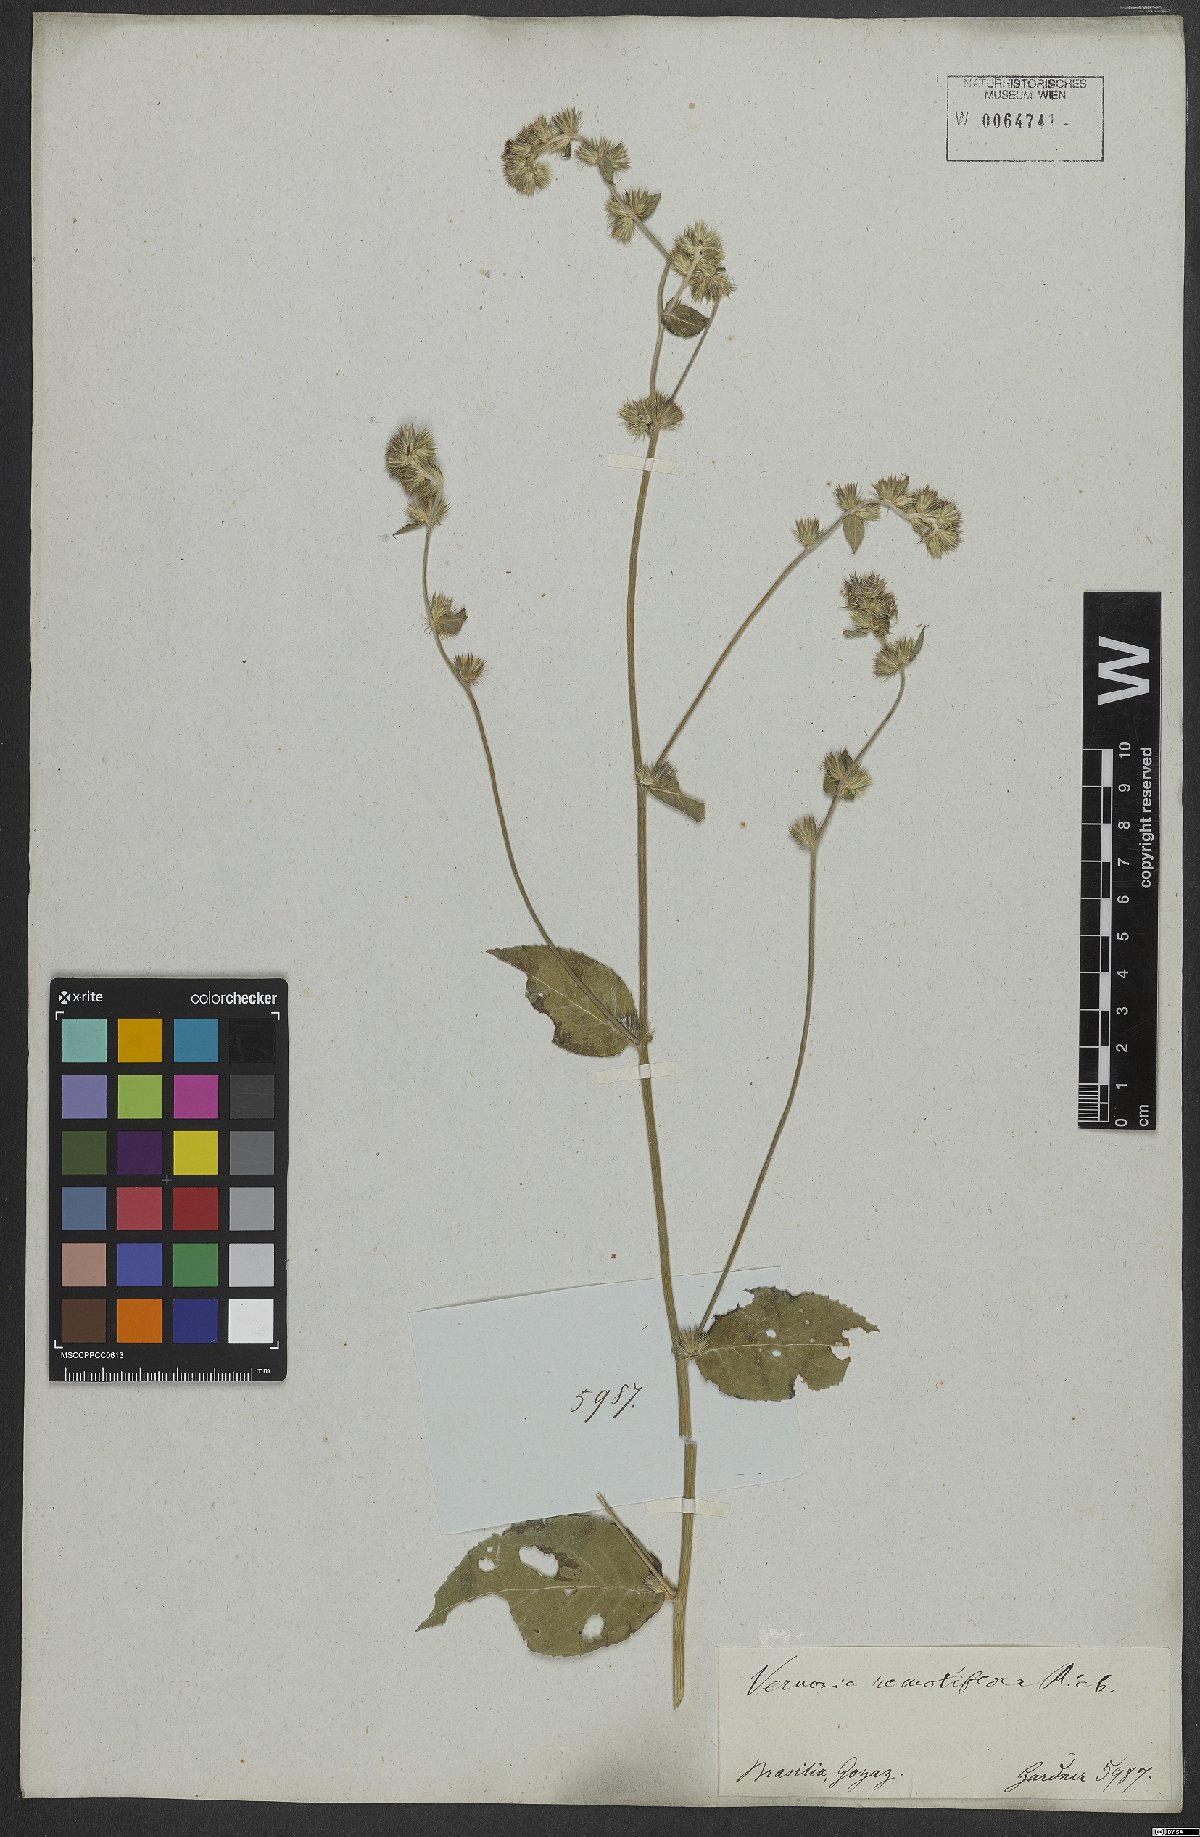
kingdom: Plantae
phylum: Tracheophyta
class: Magnoliopsida
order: Asterales
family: Asteraceae
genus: Lepidaploa
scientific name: Lepidaploa remotiflora
